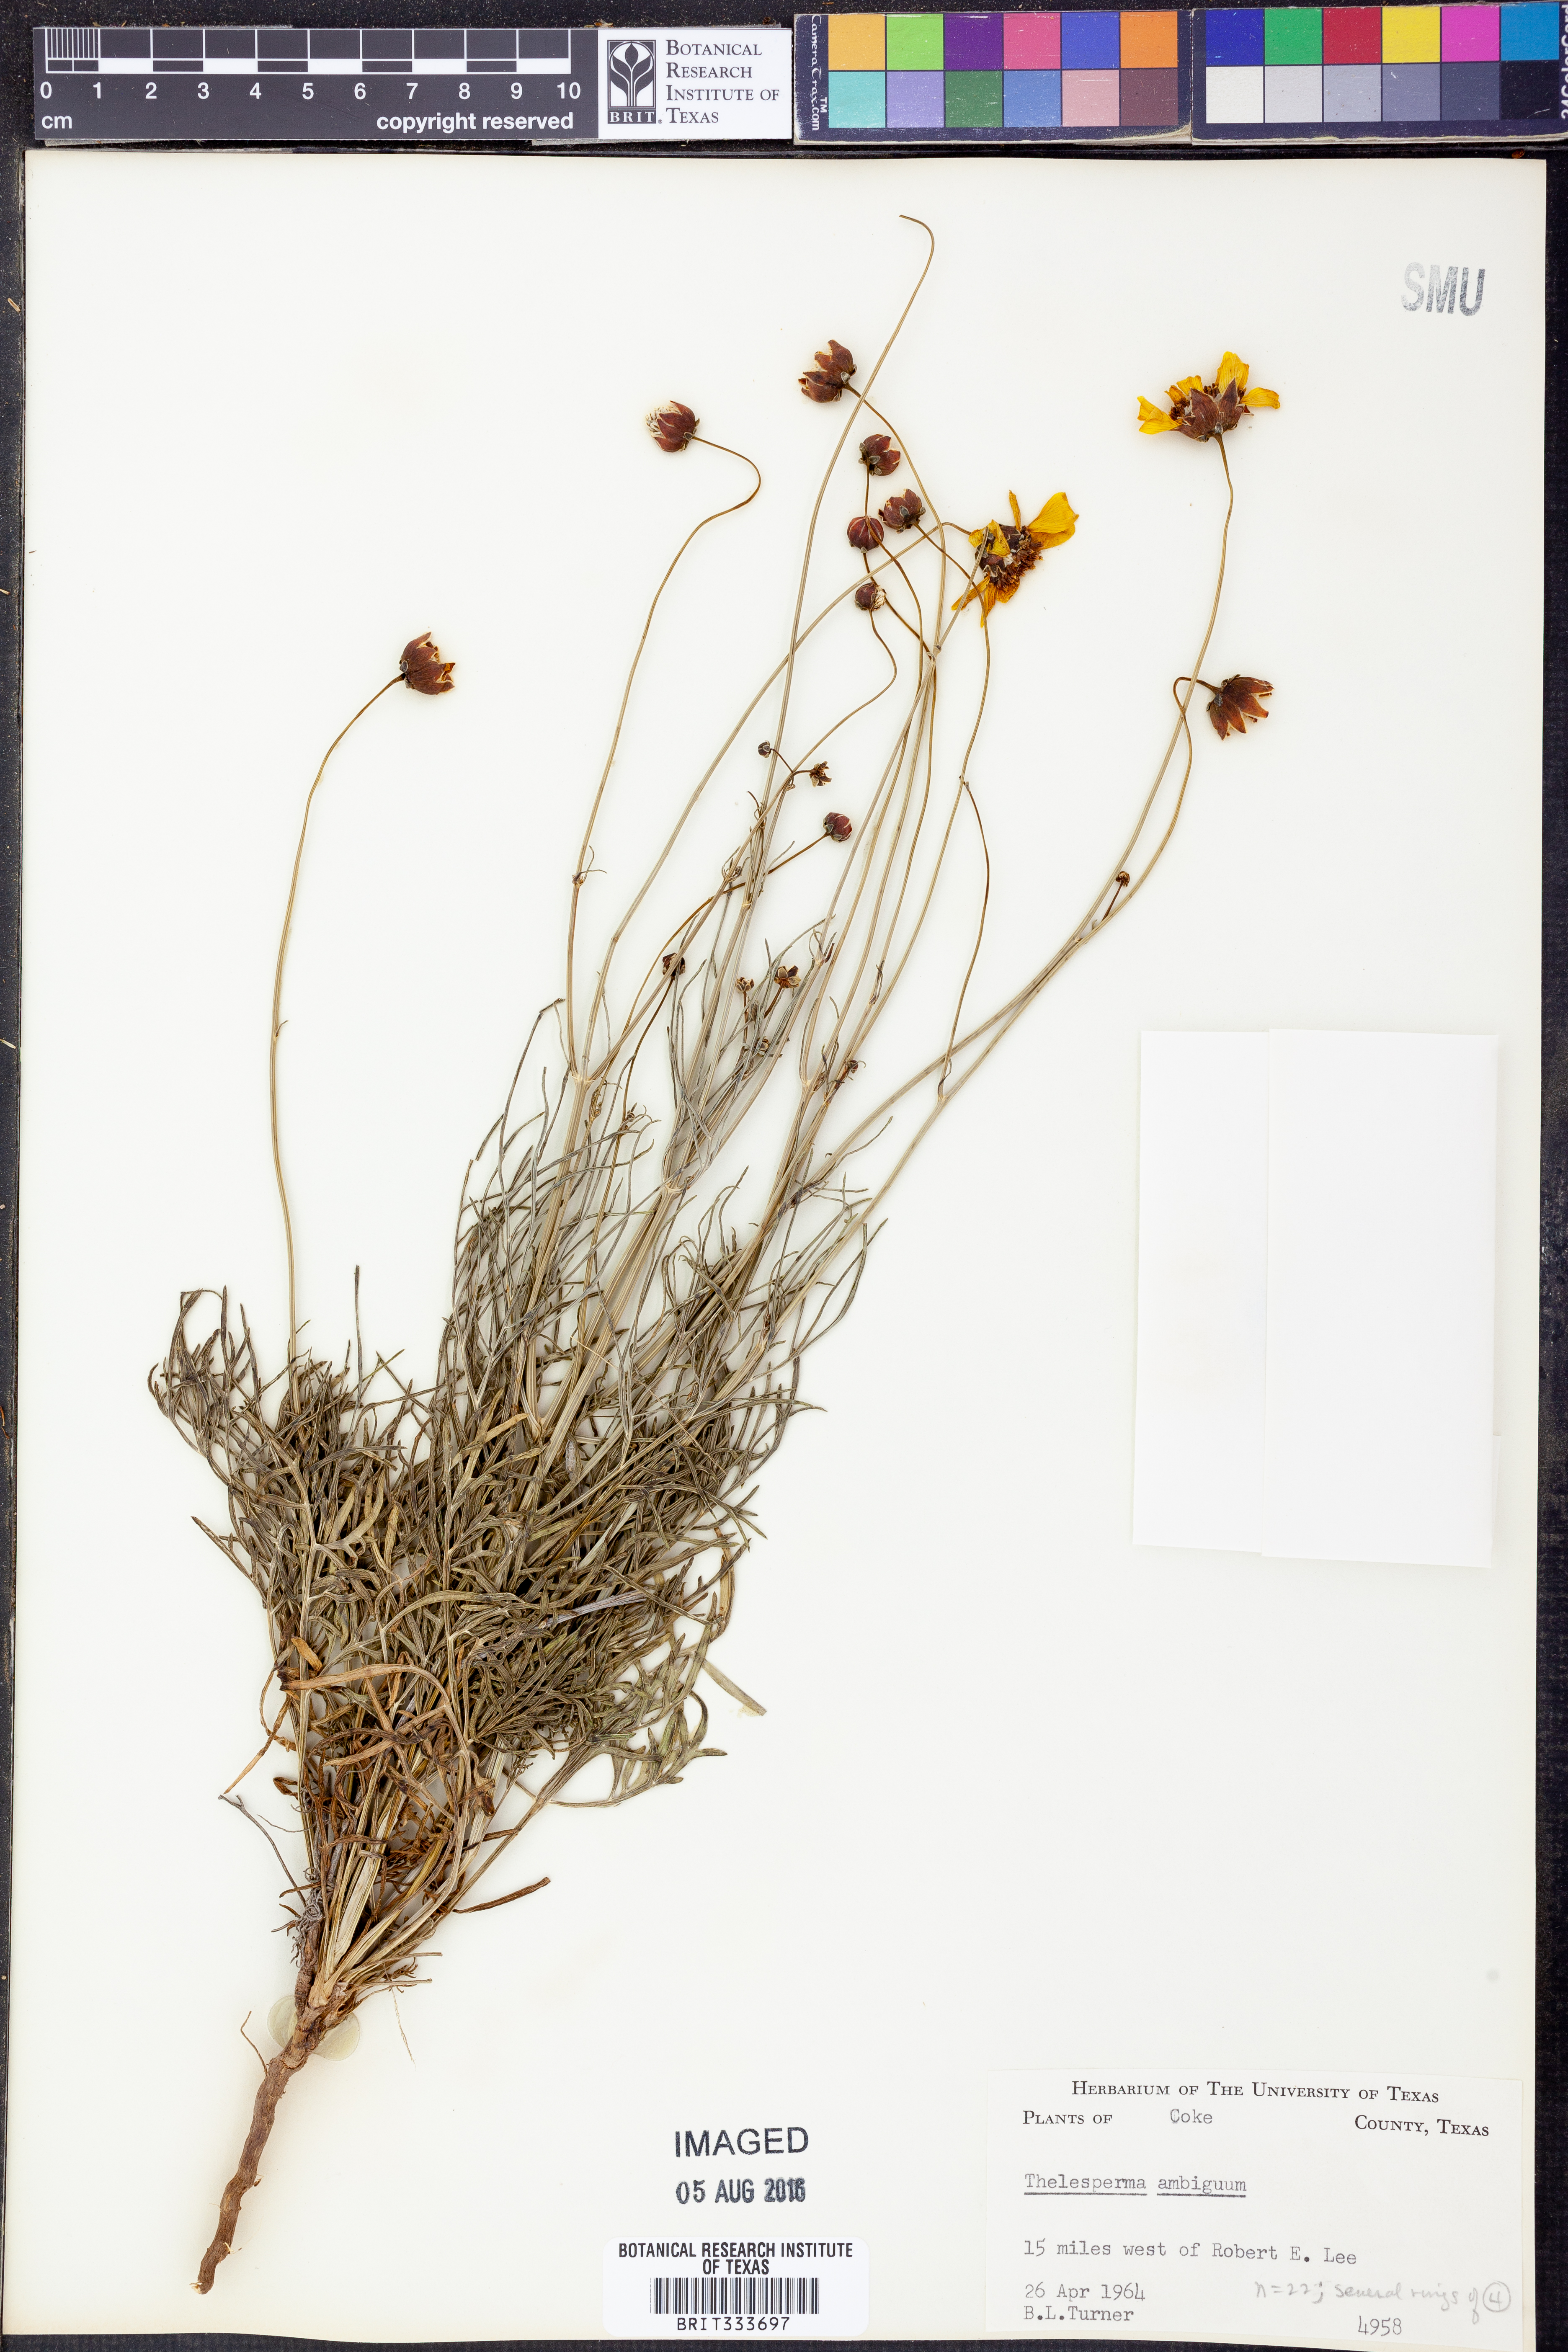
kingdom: Plantae
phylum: Tracheophyta
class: Magnoliopsida
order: Asterales
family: Asteraceae
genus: Thelesperma
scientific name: Thelesperma ambiguum
